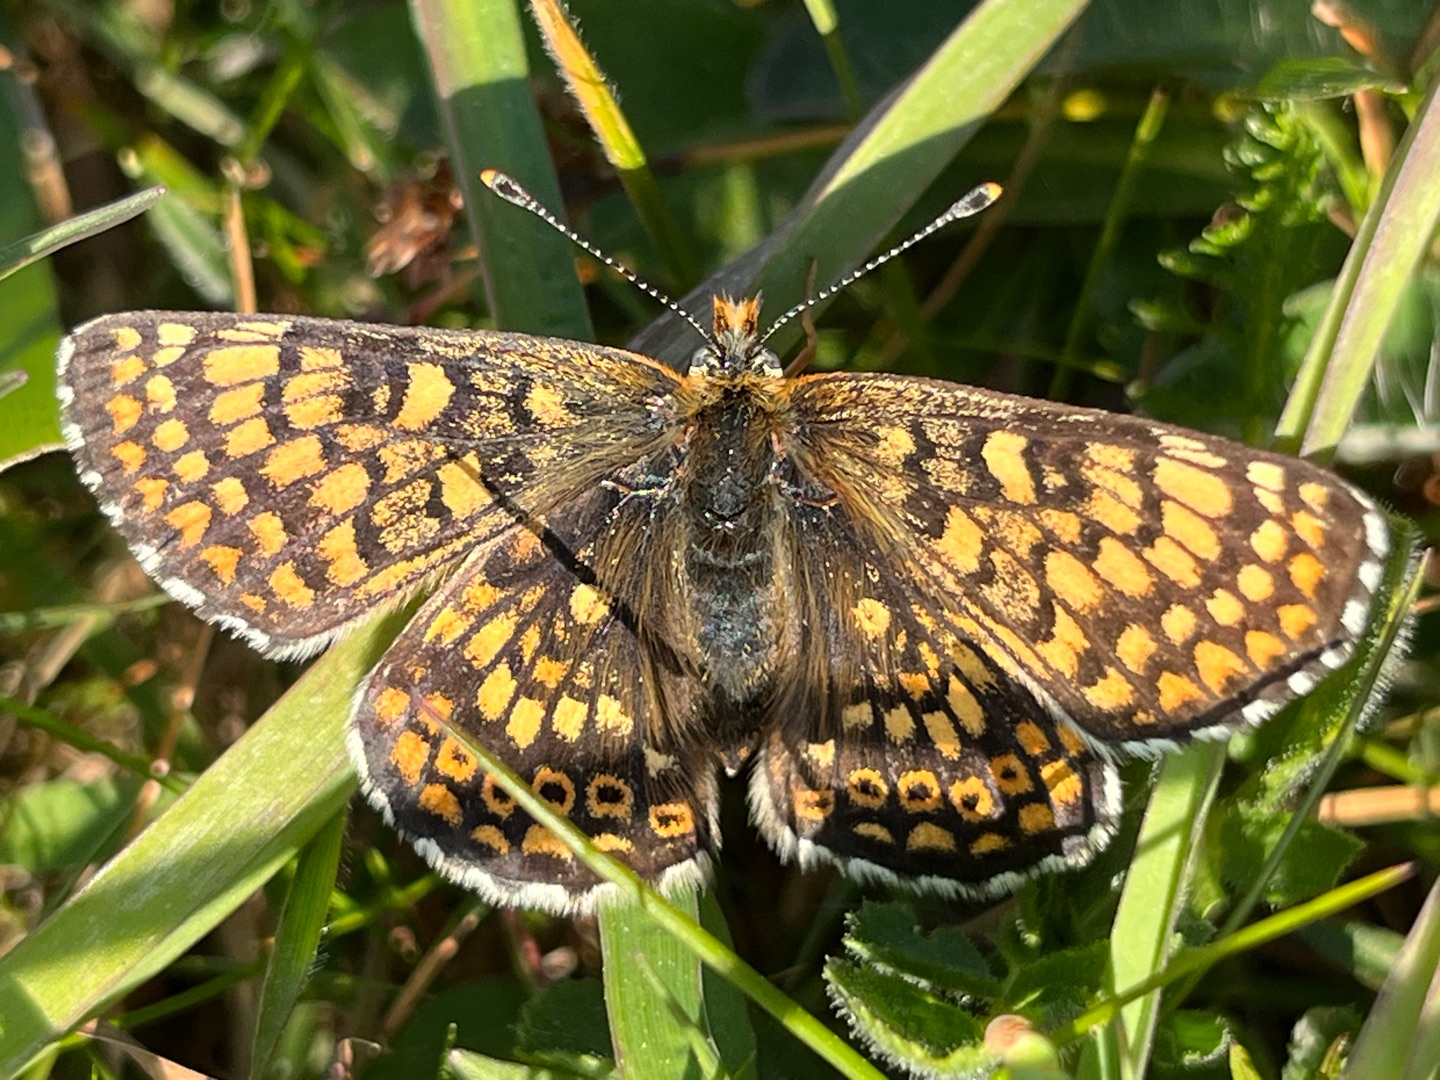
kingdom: Animalia
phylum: Arthropoda
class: Insecta
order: Lepidoptera
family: Nymphalidae
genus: Melitaea
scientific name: Melitaea cinxia
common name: Okkergul pletvinge
